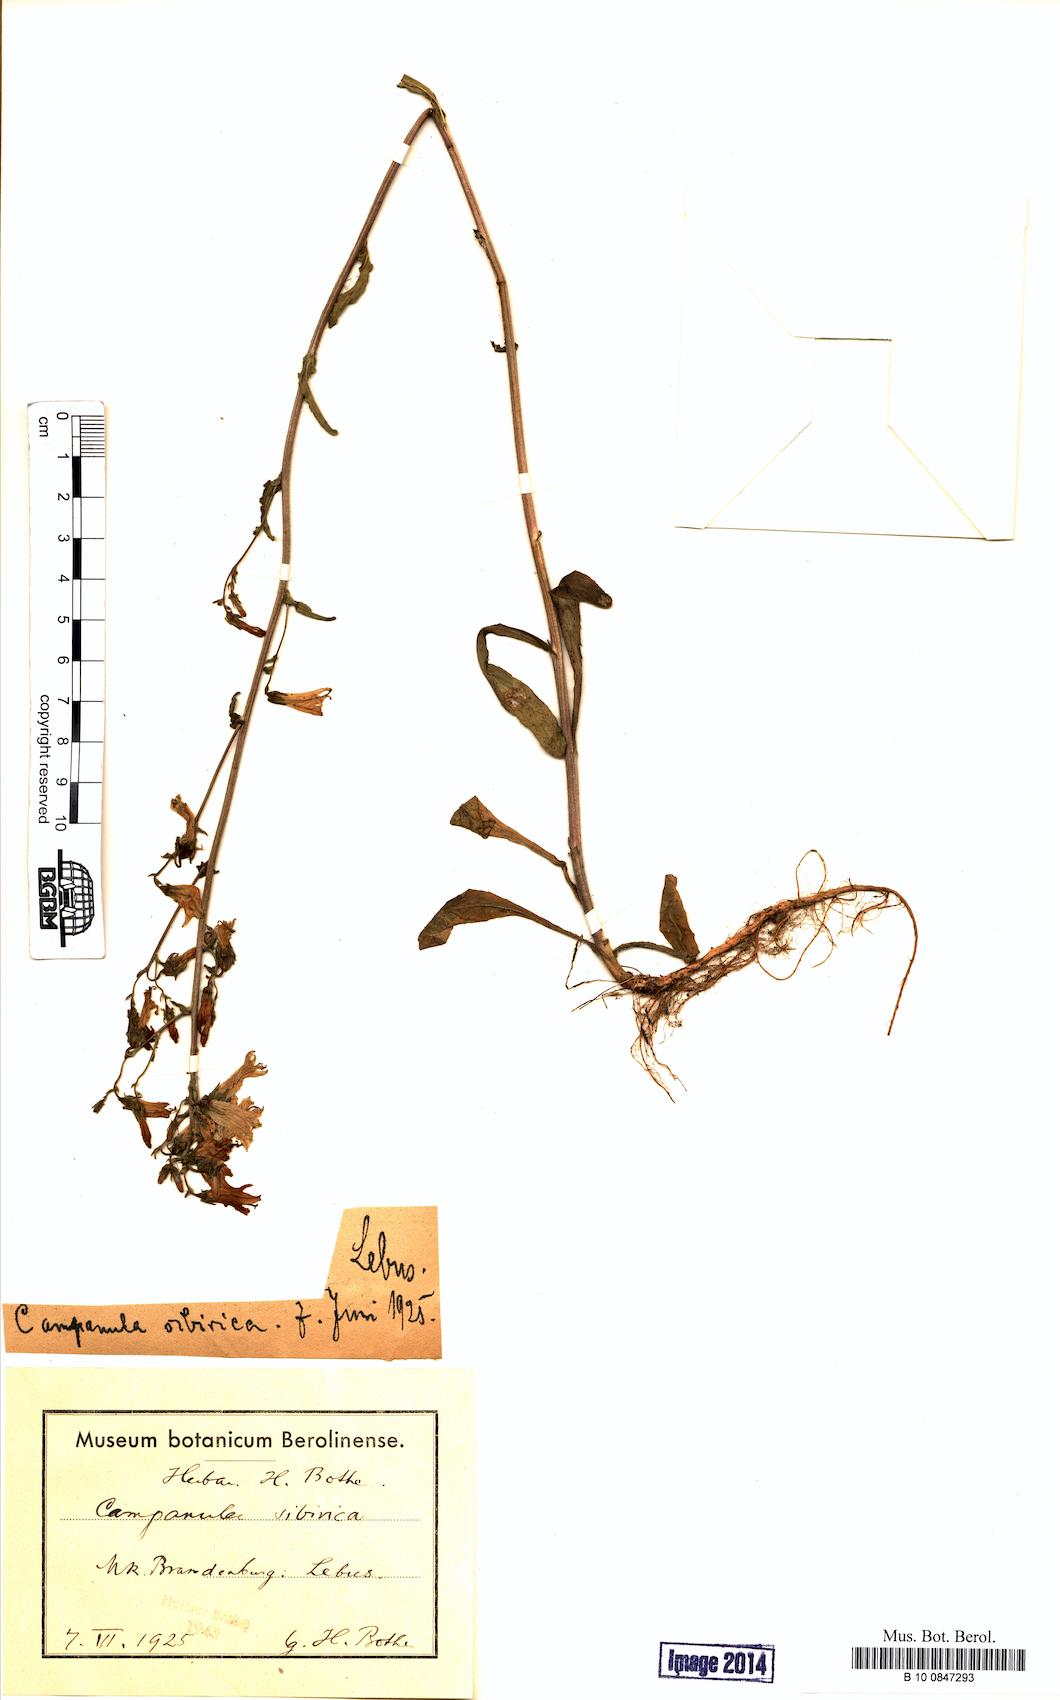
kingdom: Plantae
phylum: Tracheophyta
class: Magnoliopsida
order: Asterales
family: Campanulaceae
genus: Campanula
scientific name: Campanula sibirica
